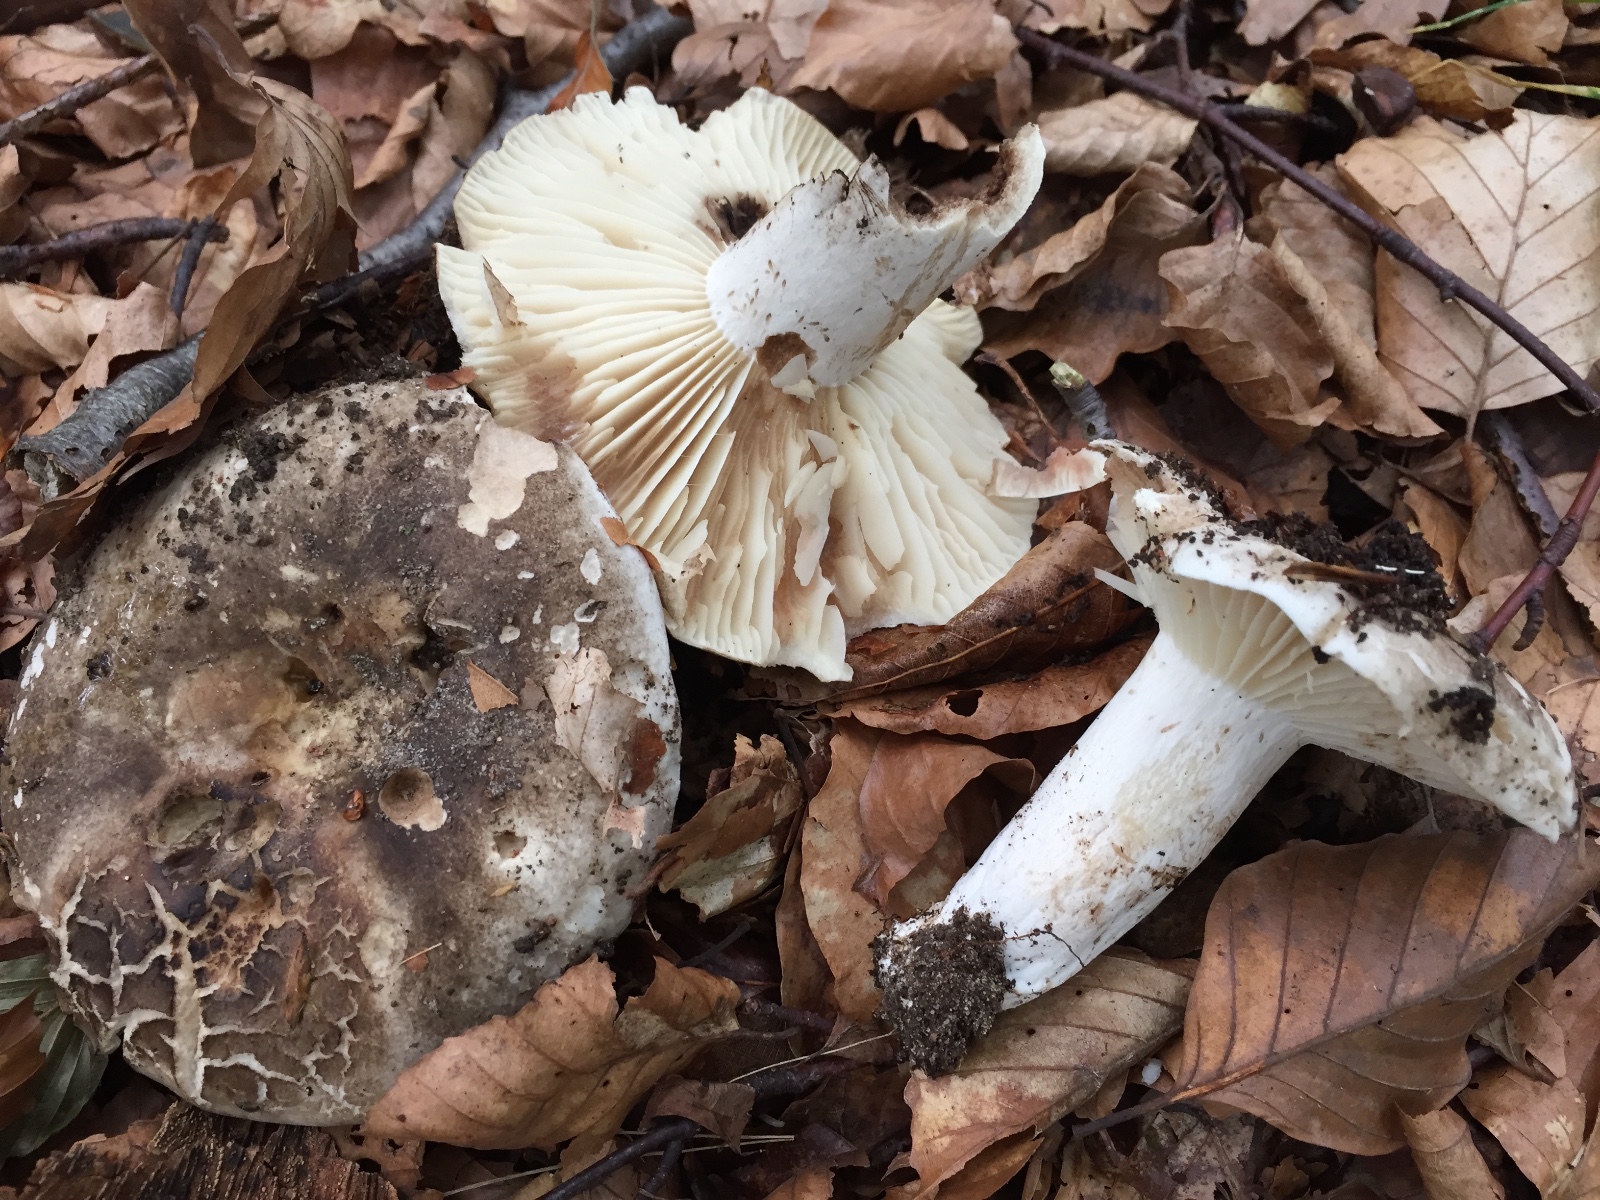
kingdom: Fungi
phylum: Basidiomycota
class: Agaricomycetes
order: Russulales
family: Russulaceae
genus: Russula
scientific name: Russula adusta
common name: sværtende skørhat
